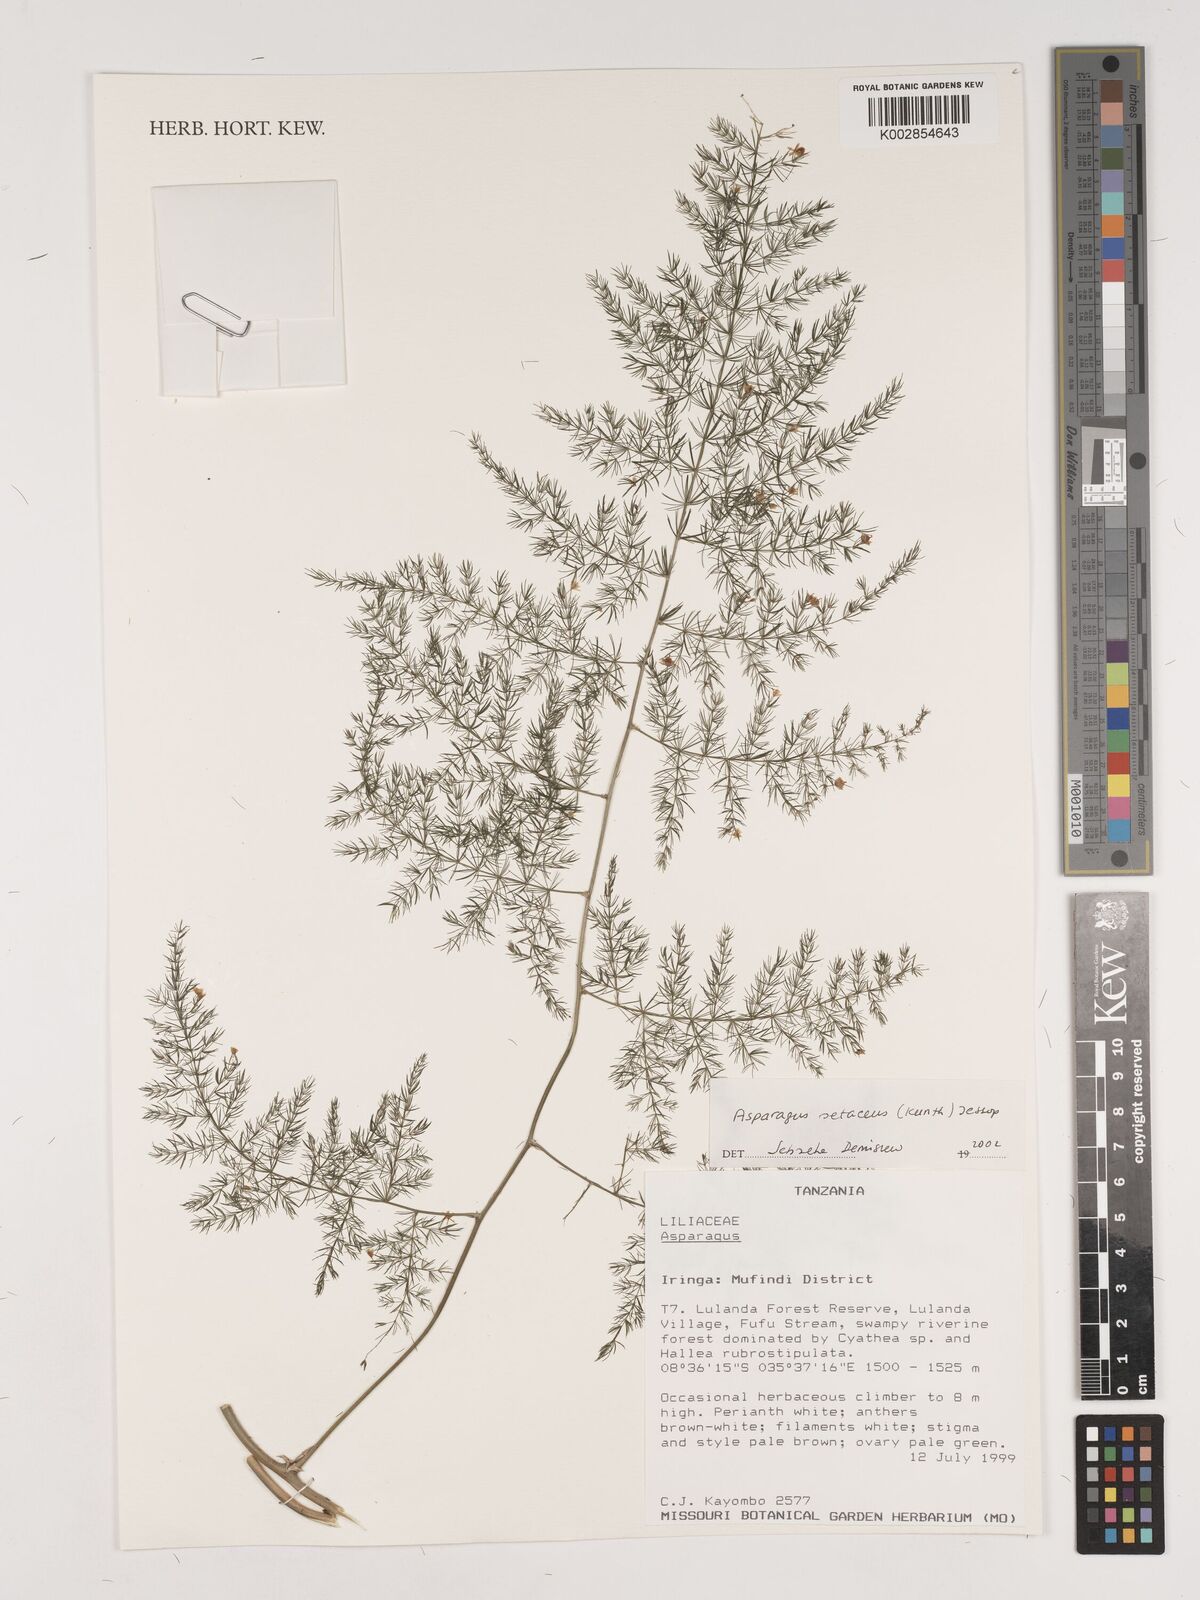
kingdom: Plantae
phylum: Tracheophyta
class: Liliopsida
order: Asparagales
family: Asparagaceae
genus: Asparagus
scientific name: Asparagus setaceus
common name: Common asparagus fern
